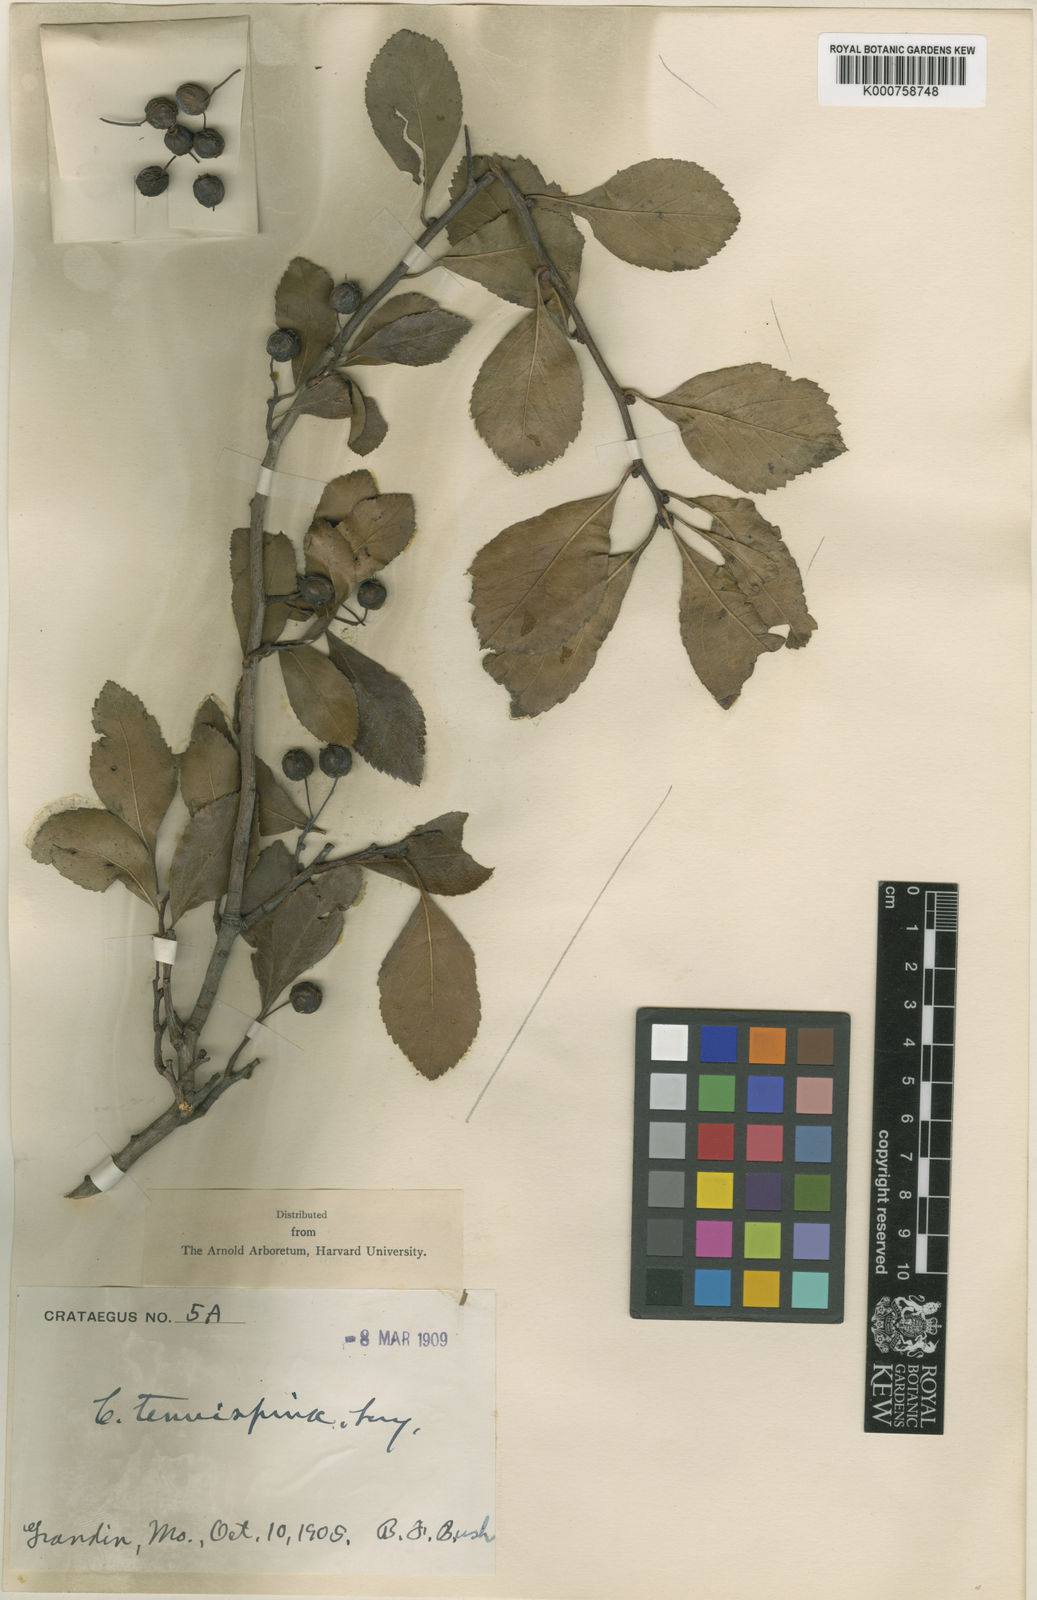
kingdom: Plantae
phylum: Tracheophyta
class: Magnoliopsida
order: Rosales
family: Rosaceae
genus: Crataegus
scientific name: Crataegus tenuispina
